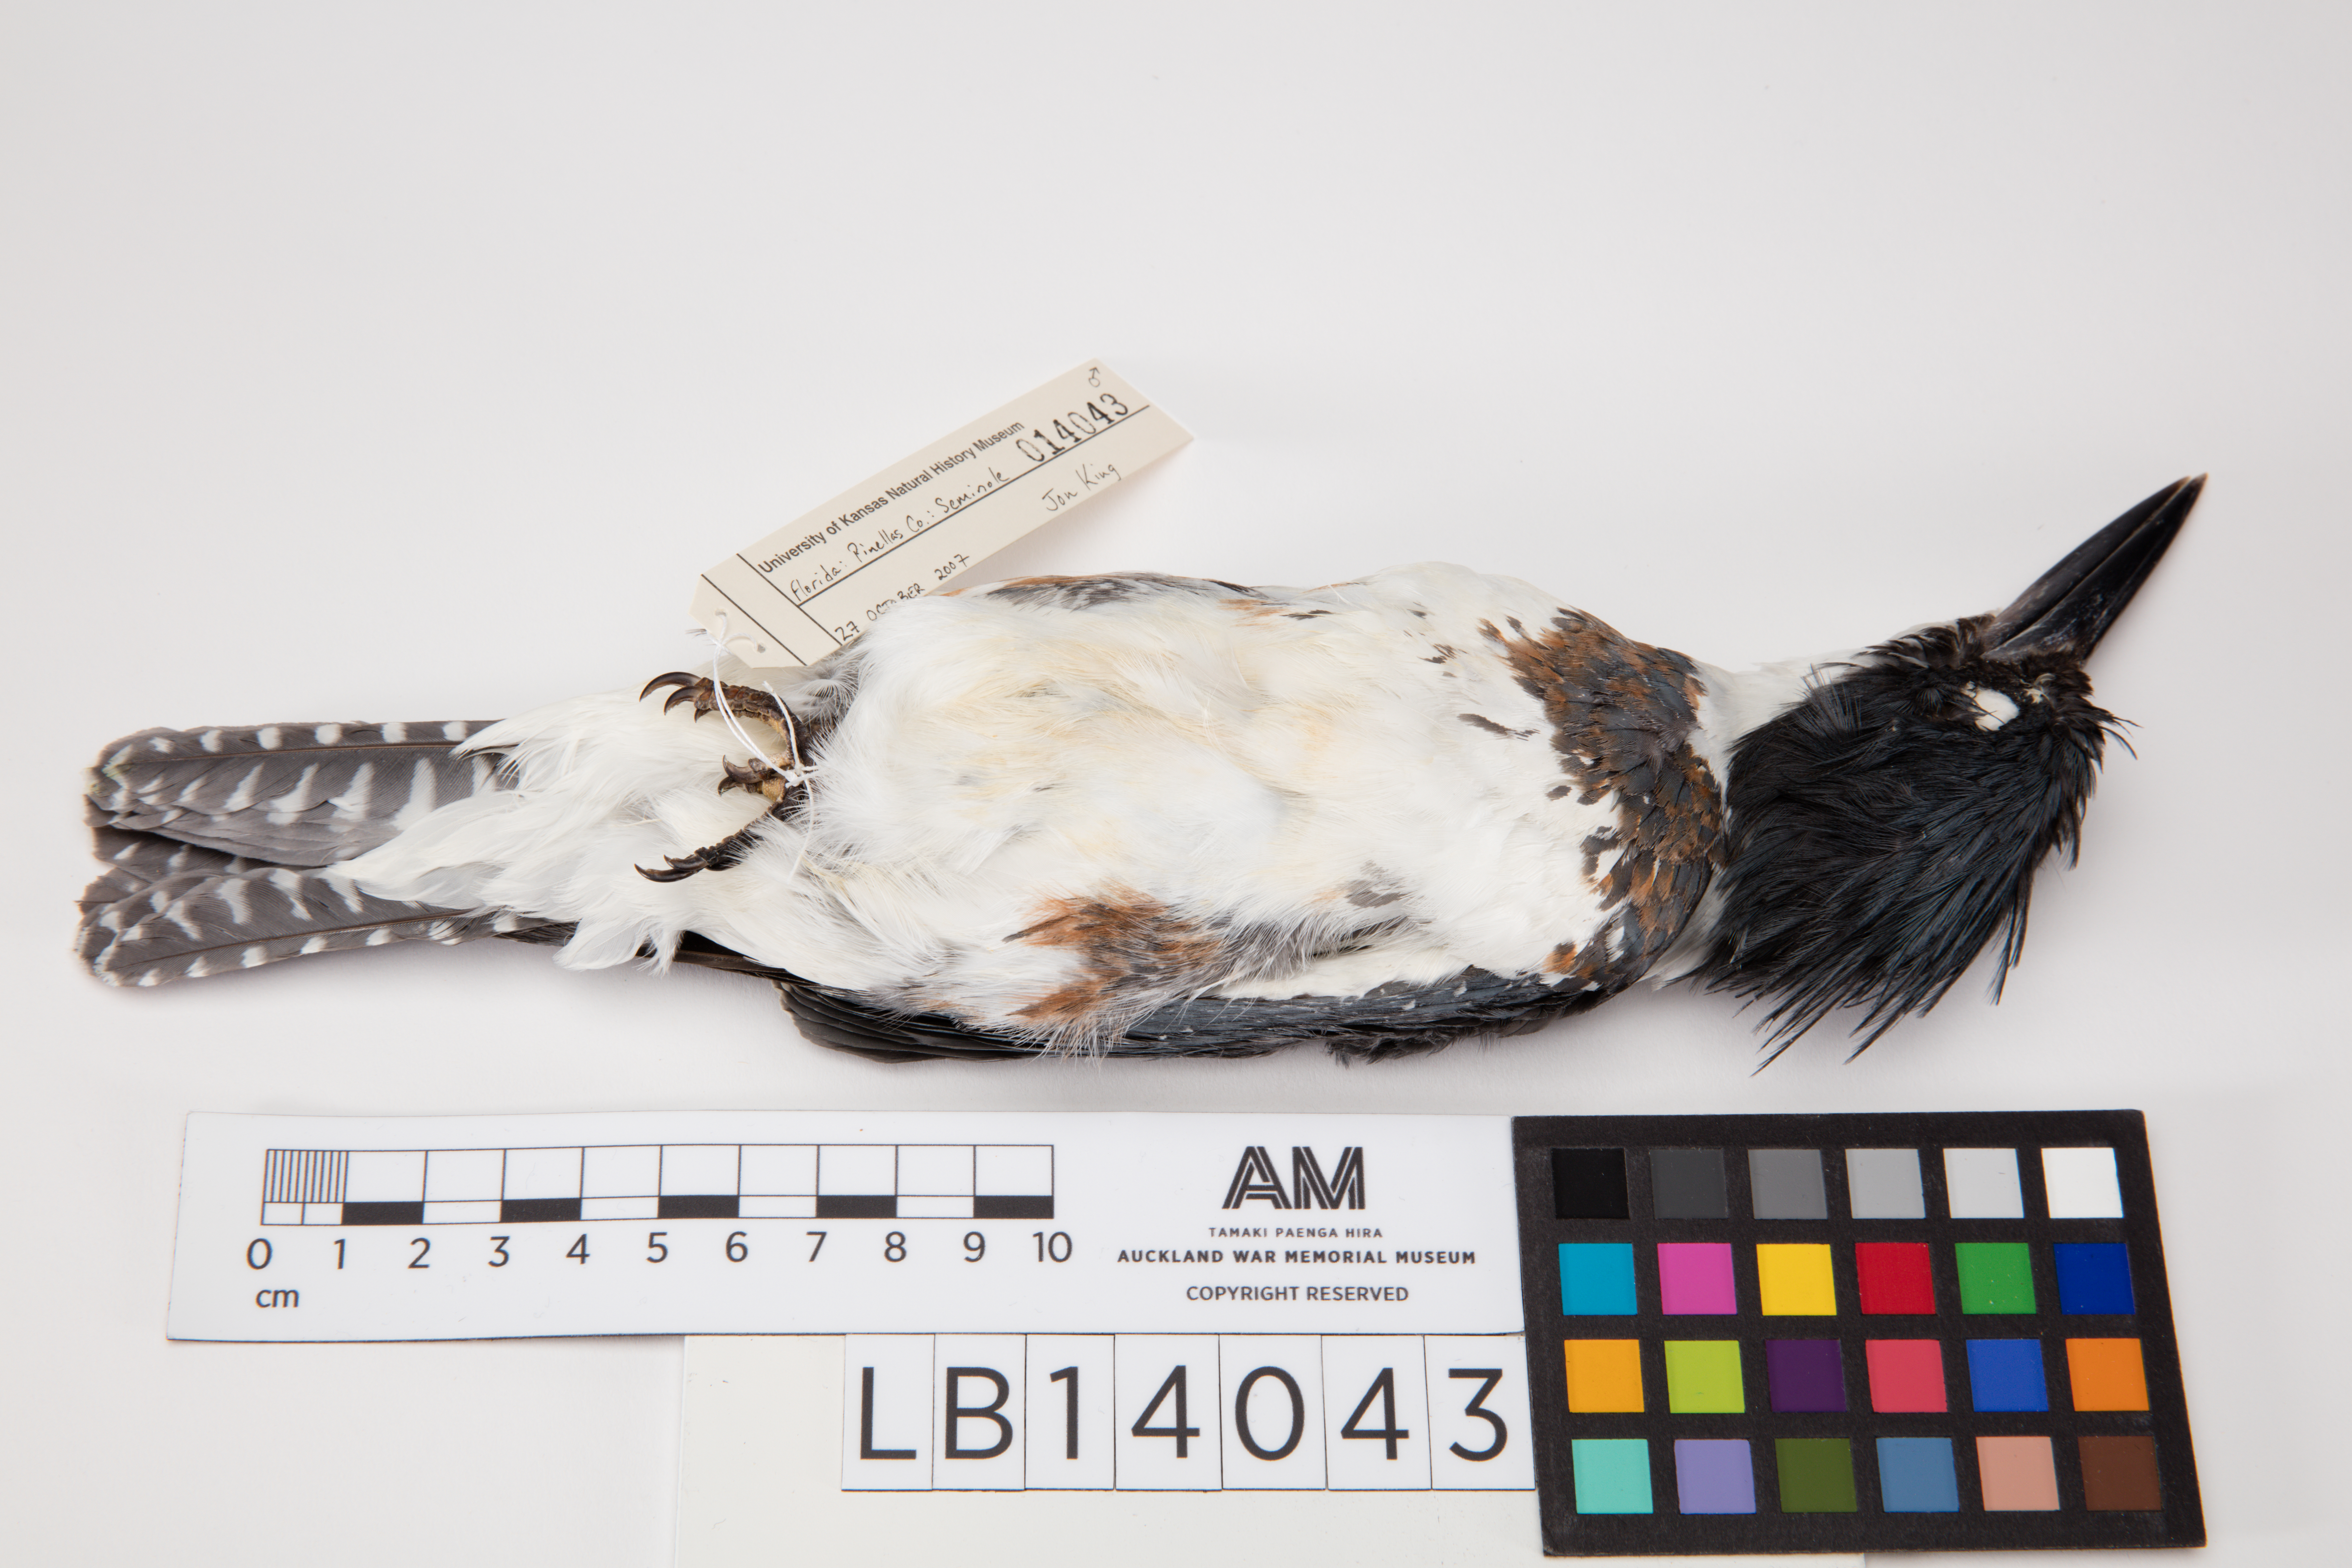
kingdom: Animalia
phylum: Chordata
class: Aves
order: Coraciiformes
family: Alcedinidae
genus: Megaceryle
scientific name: Megaceryle alcyon
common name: Belted kingfisher
